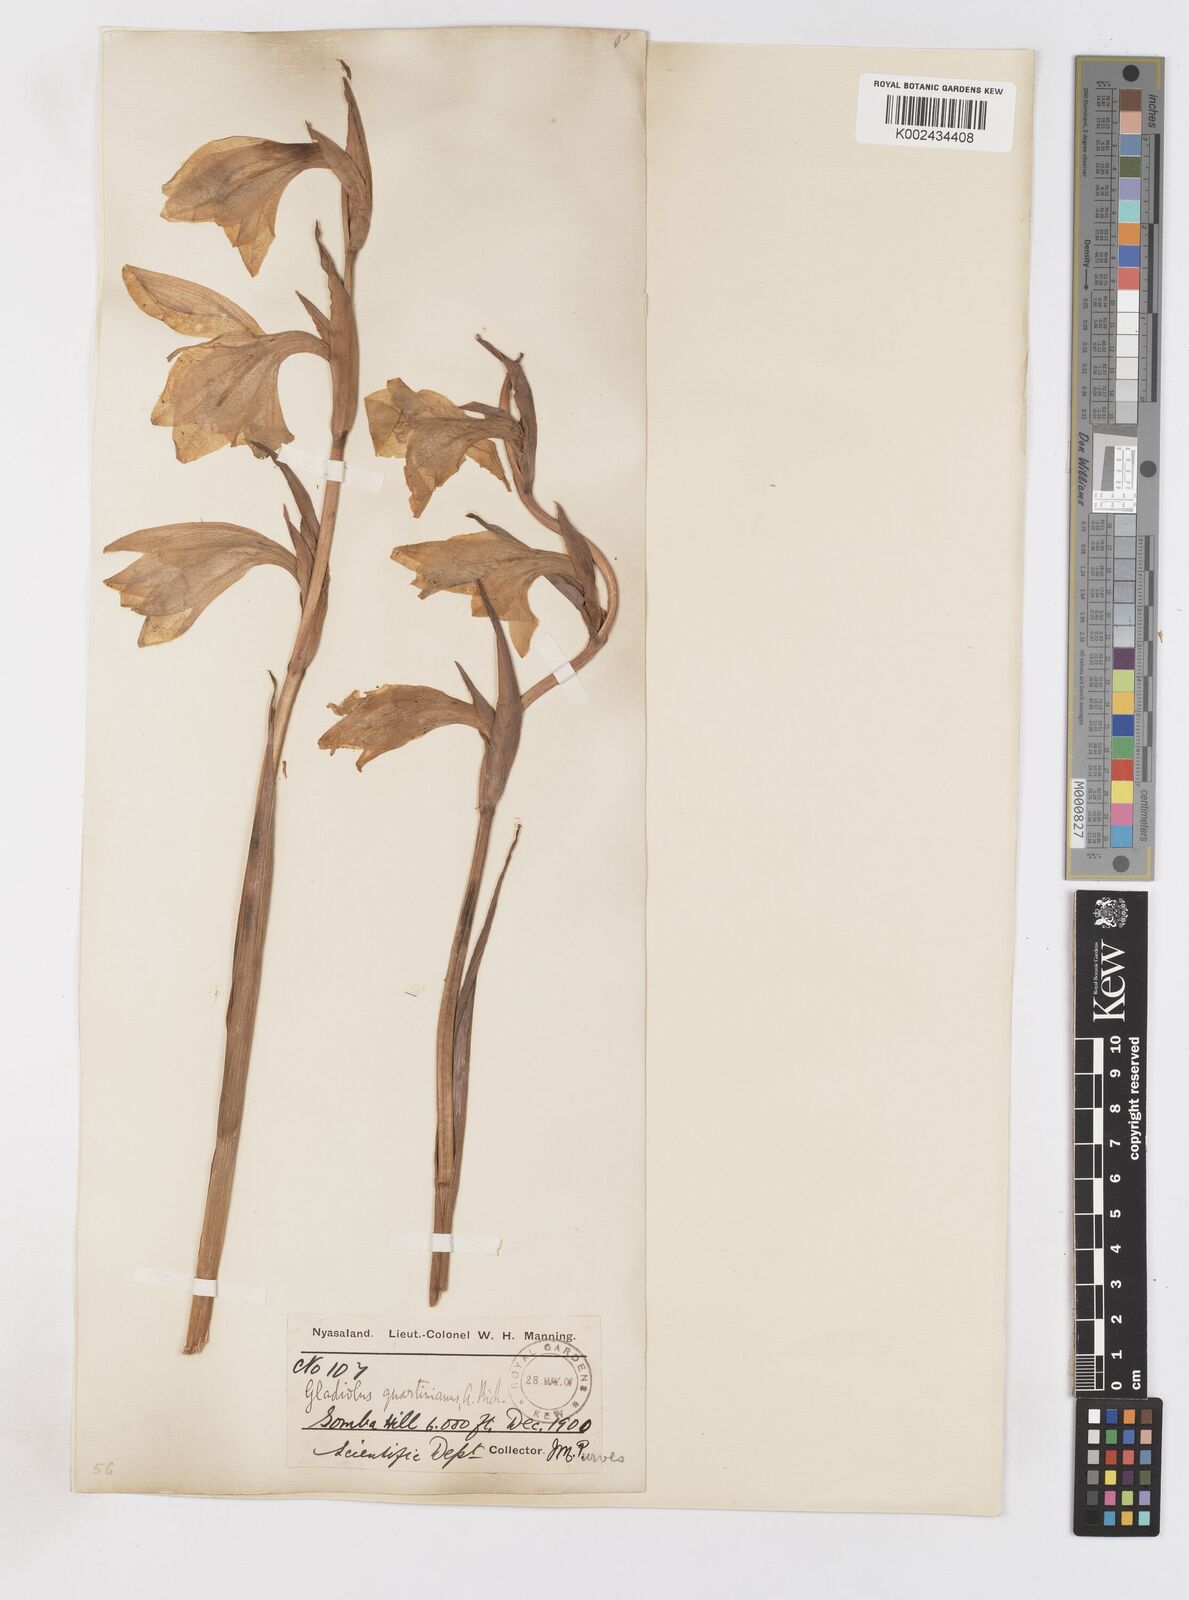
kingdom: Plantae
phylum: Tracheophyta
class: Liliopsida
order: Asparagales
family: Iridaceae
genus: Gladiolus
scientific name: Gladiolus dalenii
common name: Cornflag
